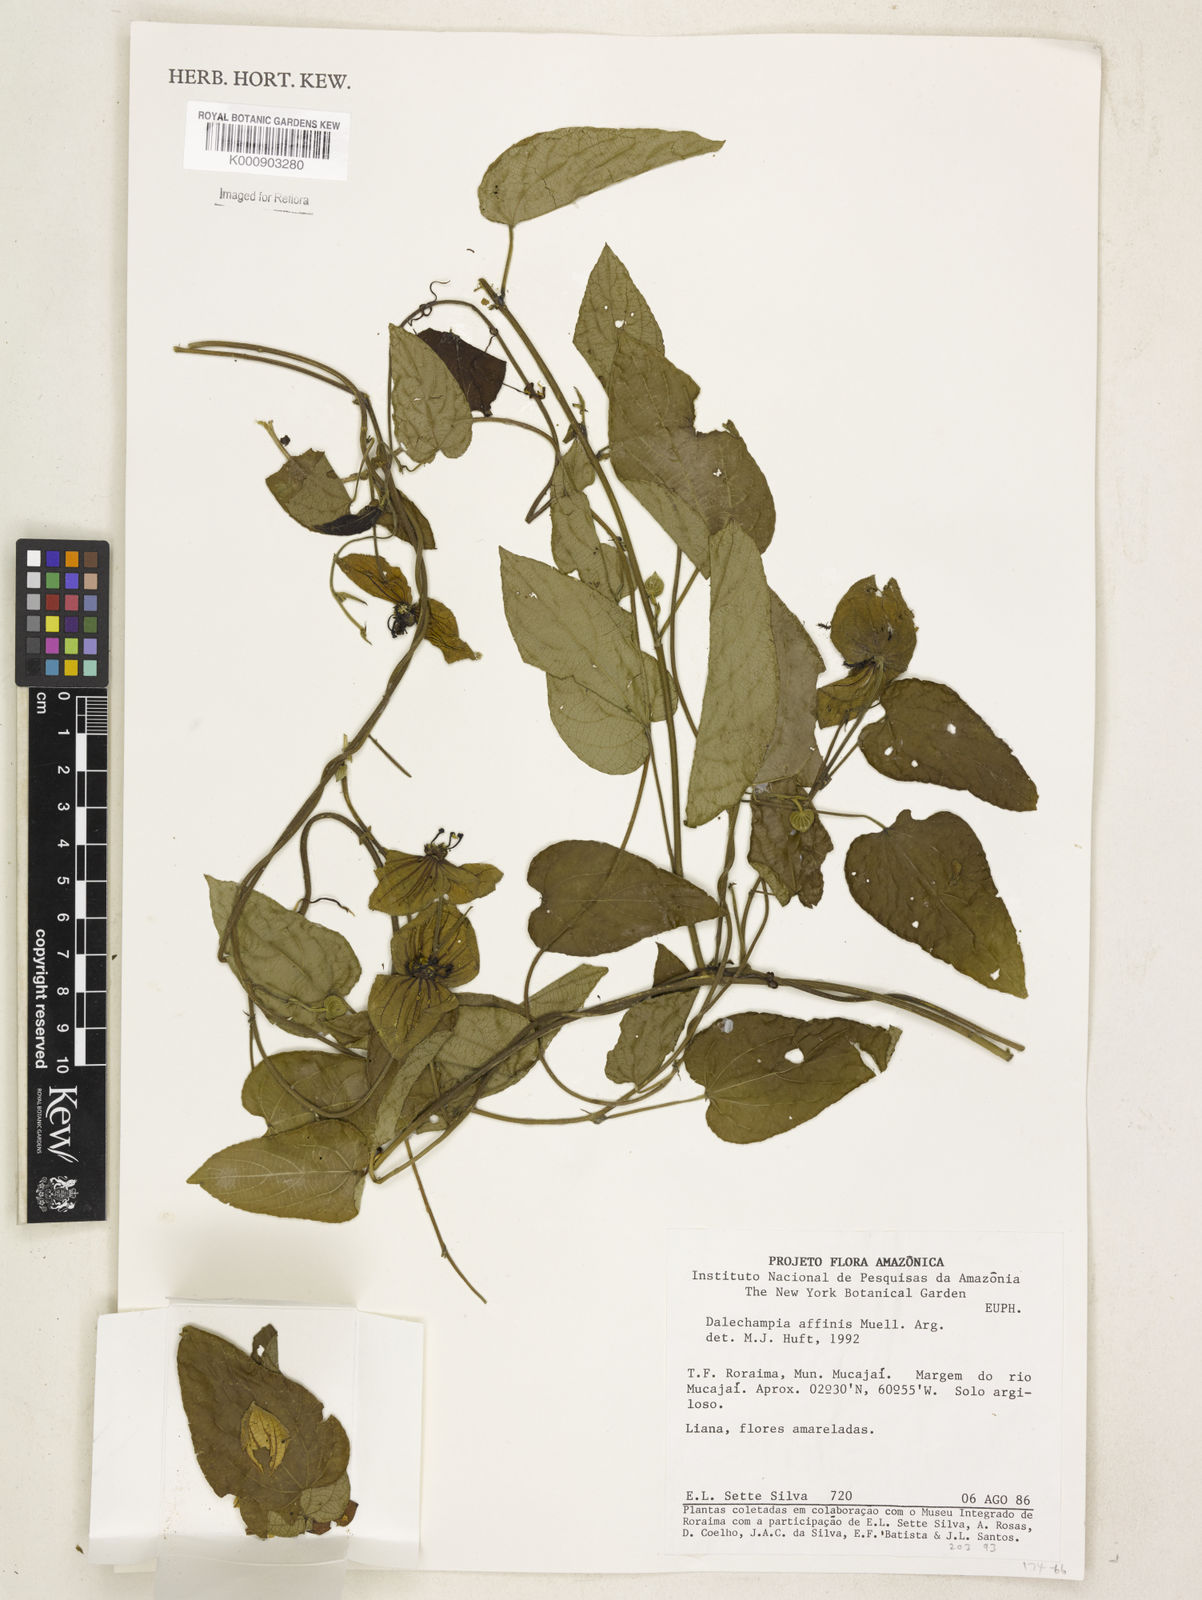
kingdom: Plantae
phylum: Tracheophyta
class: Magnoliopsida
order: Malpighiales
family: Euphorbiaceae
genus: Dalechampia
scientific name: Dalechampia
